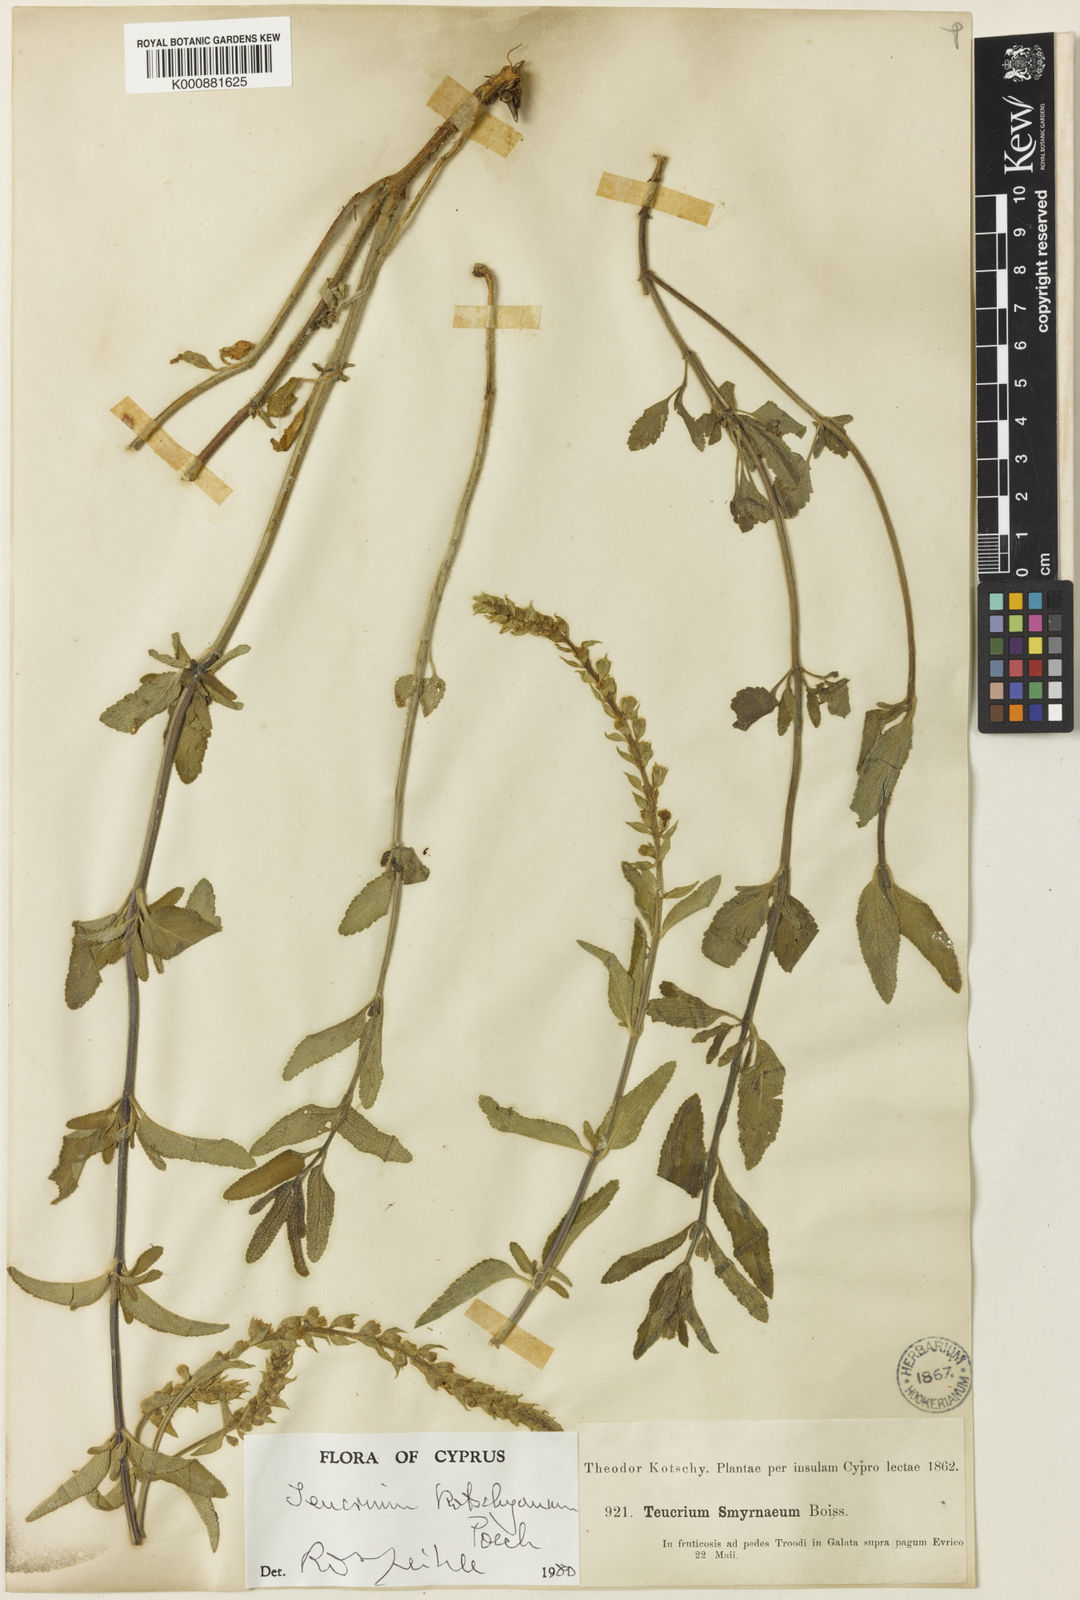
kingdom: Plantae
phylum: Tracheophyta
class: Magnoliopsida
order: Lamiales
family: Lamiaceae
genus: Teucrium
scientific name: Teucrium kotschyanum
